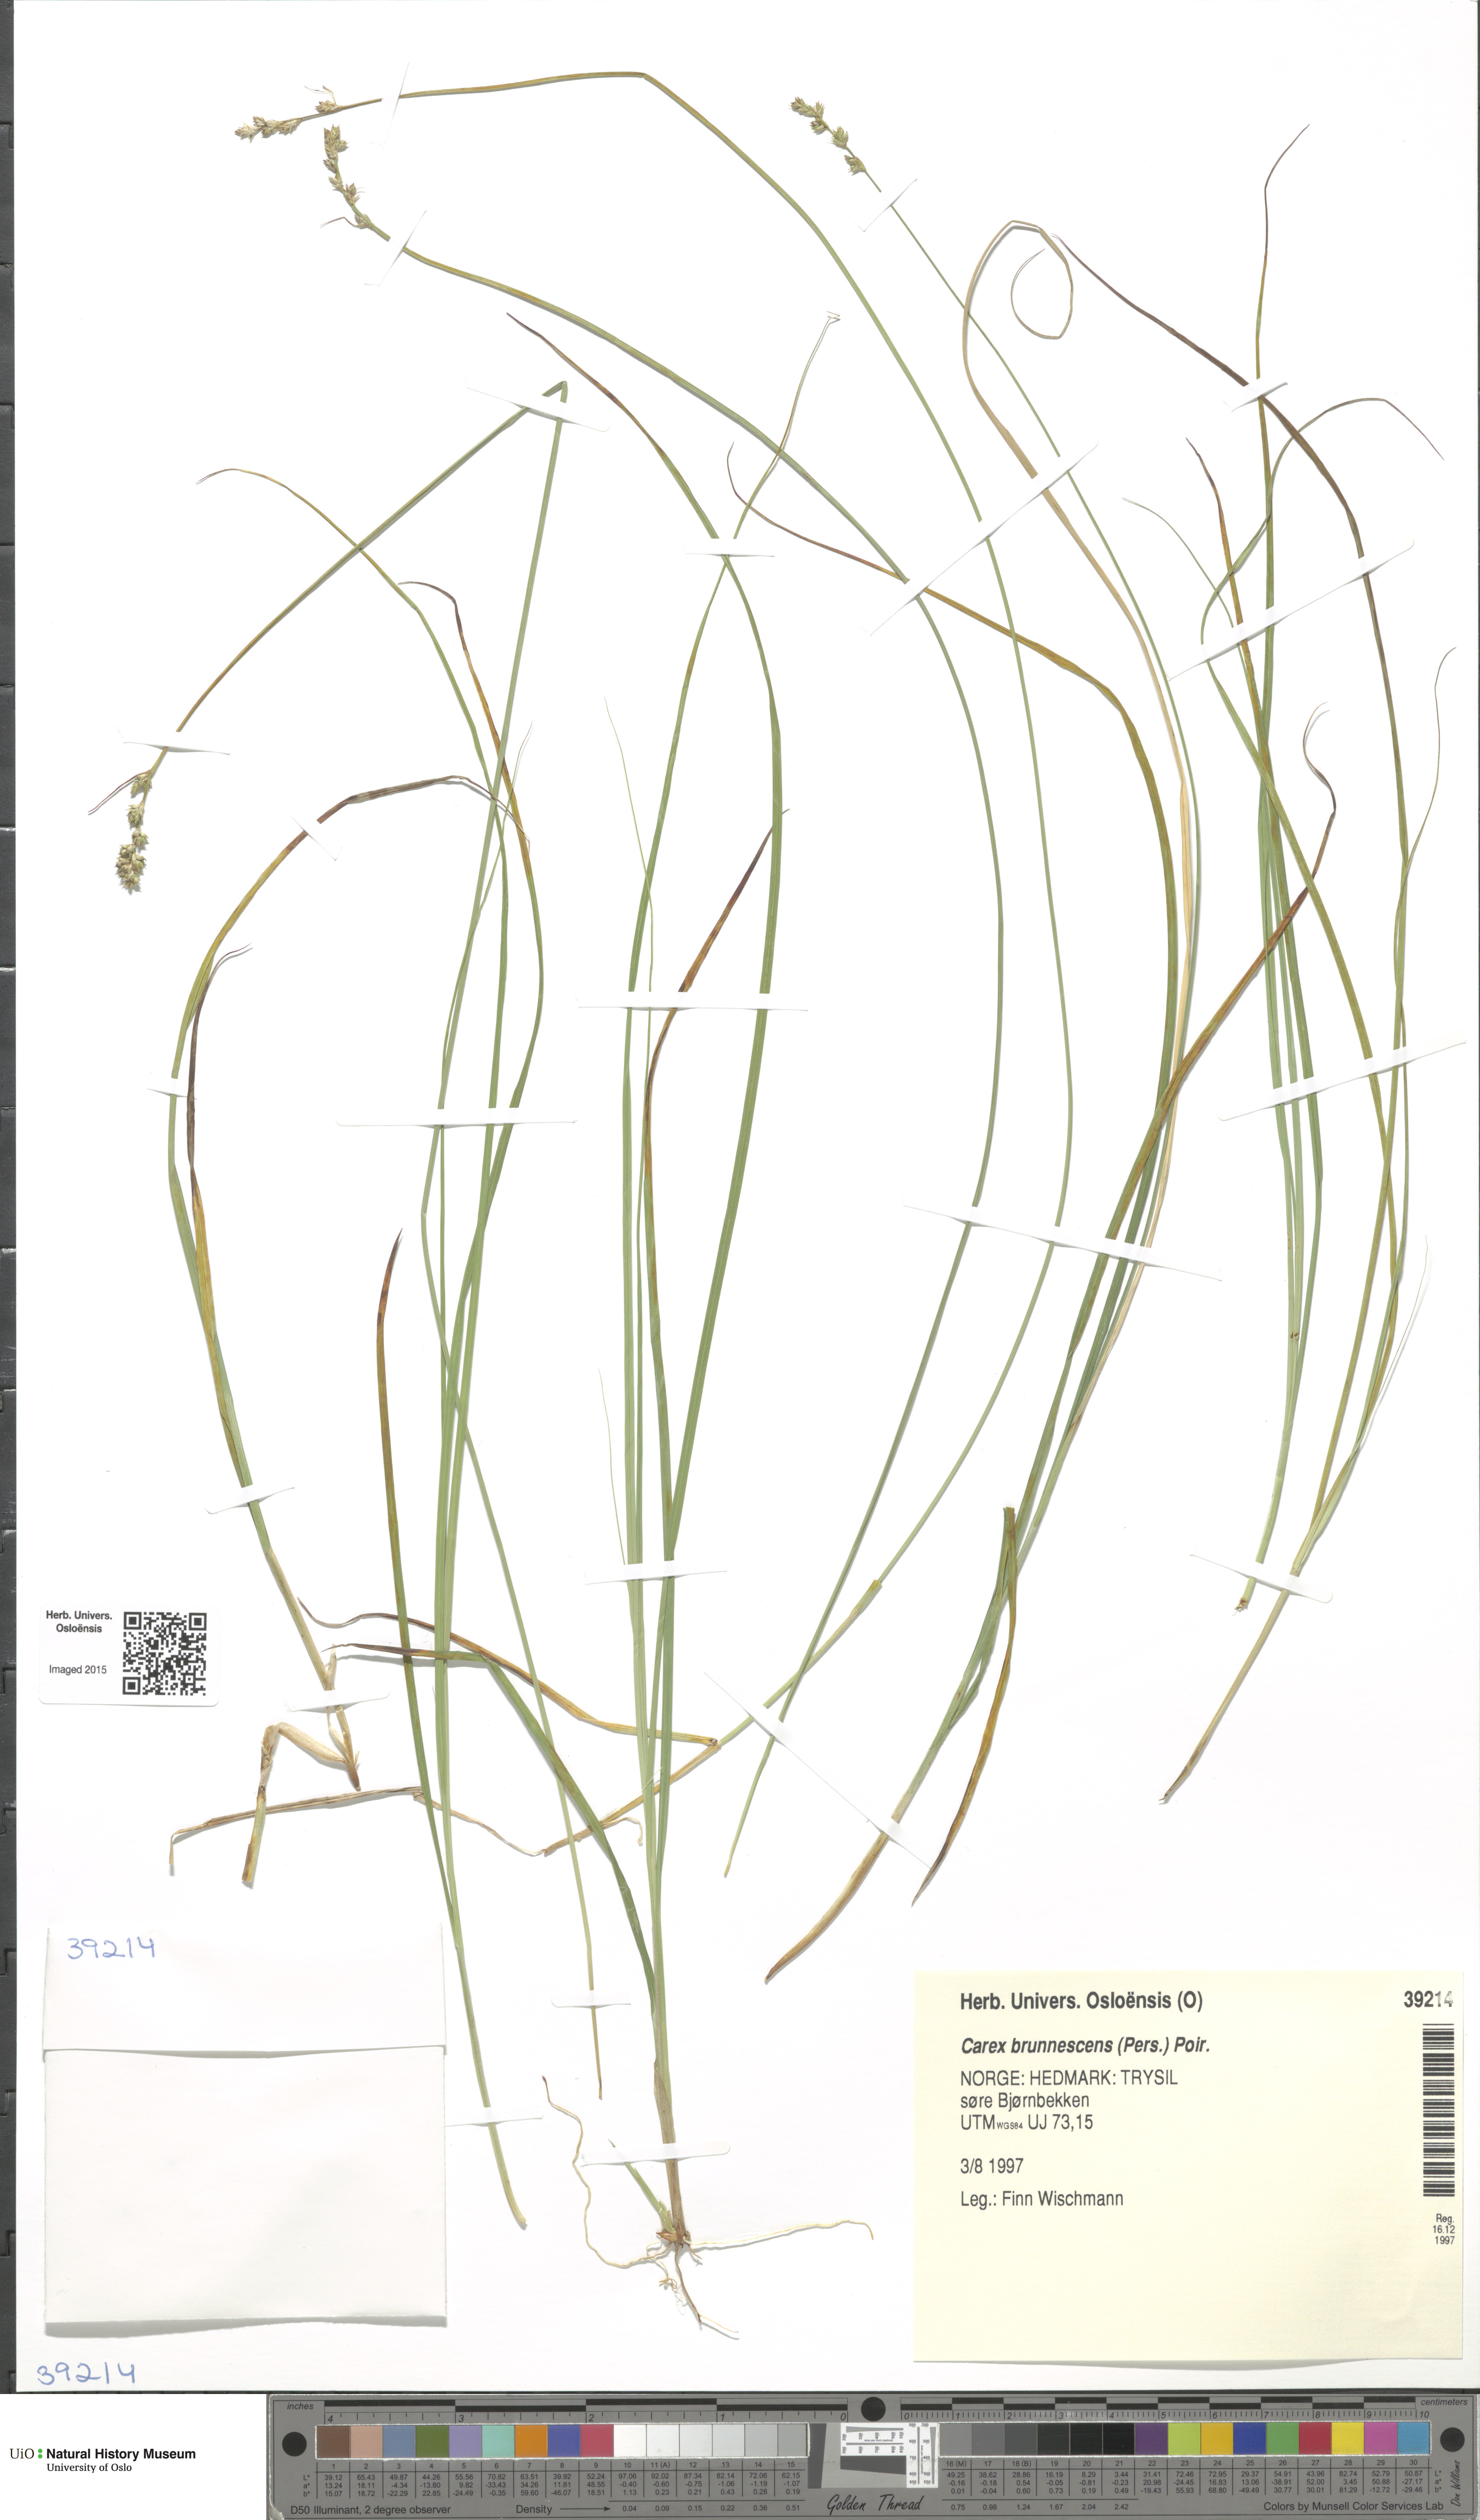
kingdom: Plantae
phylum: Tracheophyta
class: Liliopsida
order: Poales
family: Cyperaceae
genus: Carex
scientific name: Carex brunnescens
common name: Brown sedge
